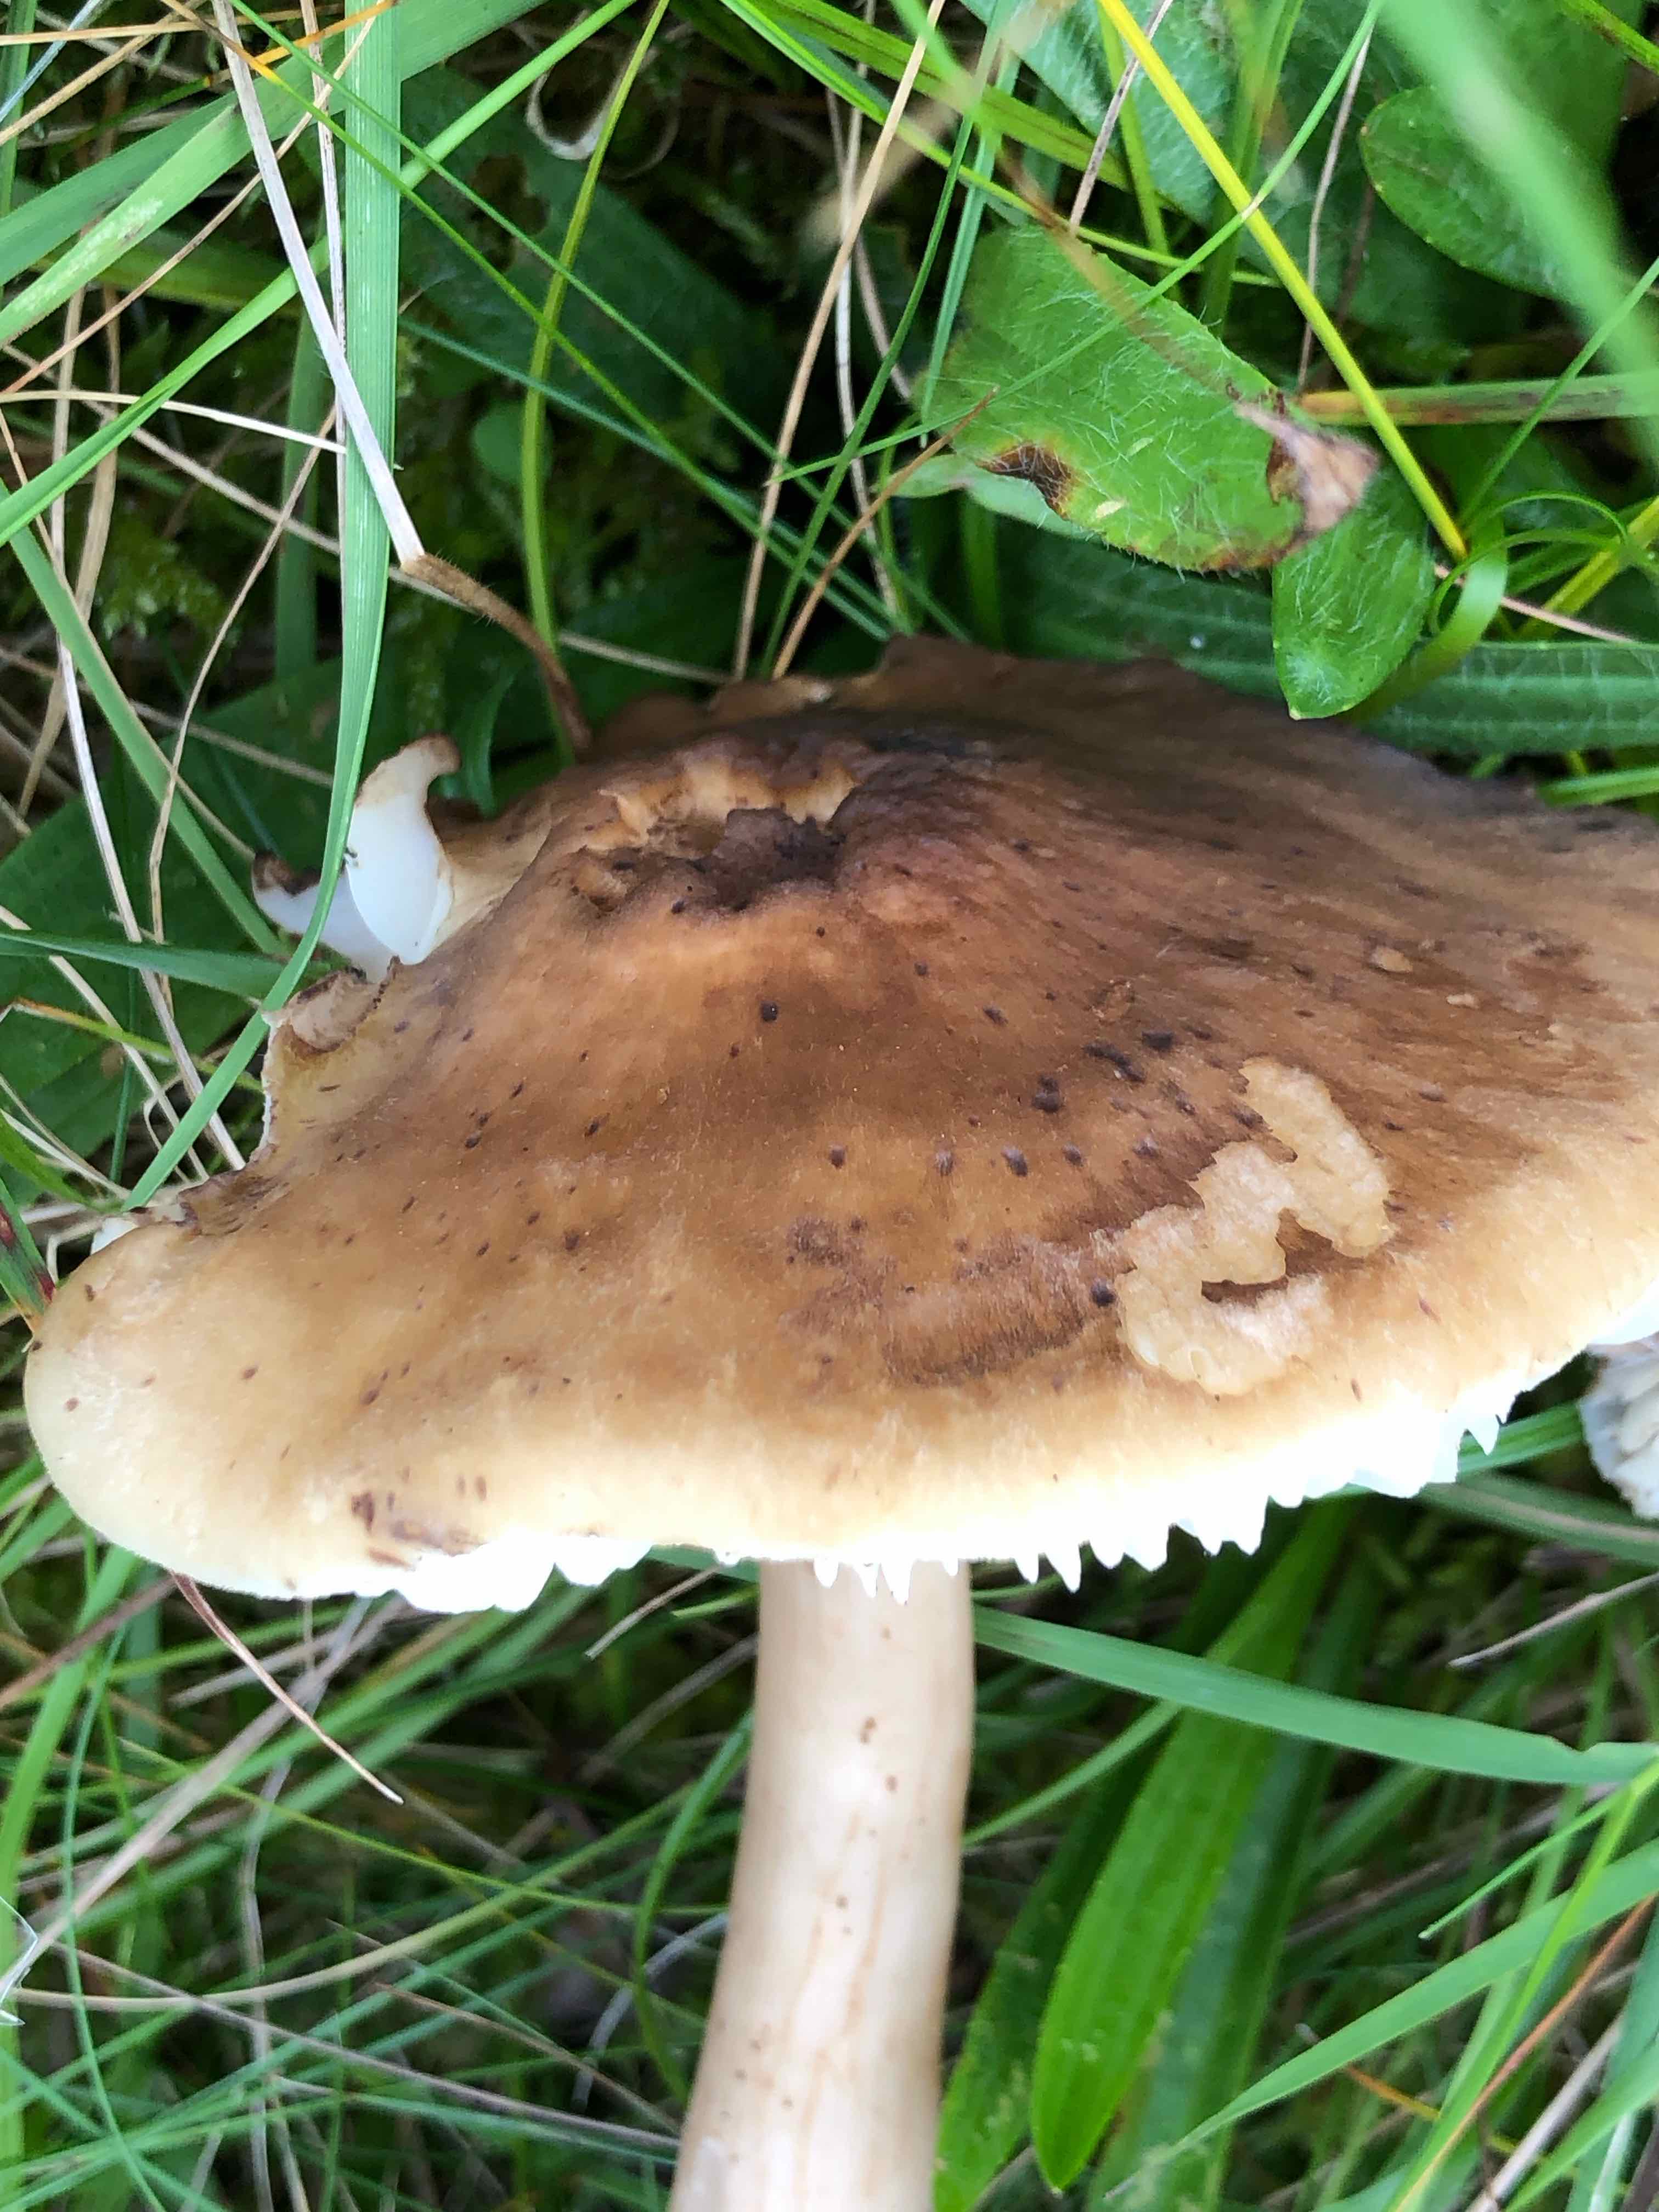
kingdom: Fungi
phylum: Basidiomycota
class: Agaricomycetes
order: Agaricales
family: Hygrophoraceae
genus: Hygrocybe
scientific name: Hygrocybe ingrata
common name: Jensens vokshat
